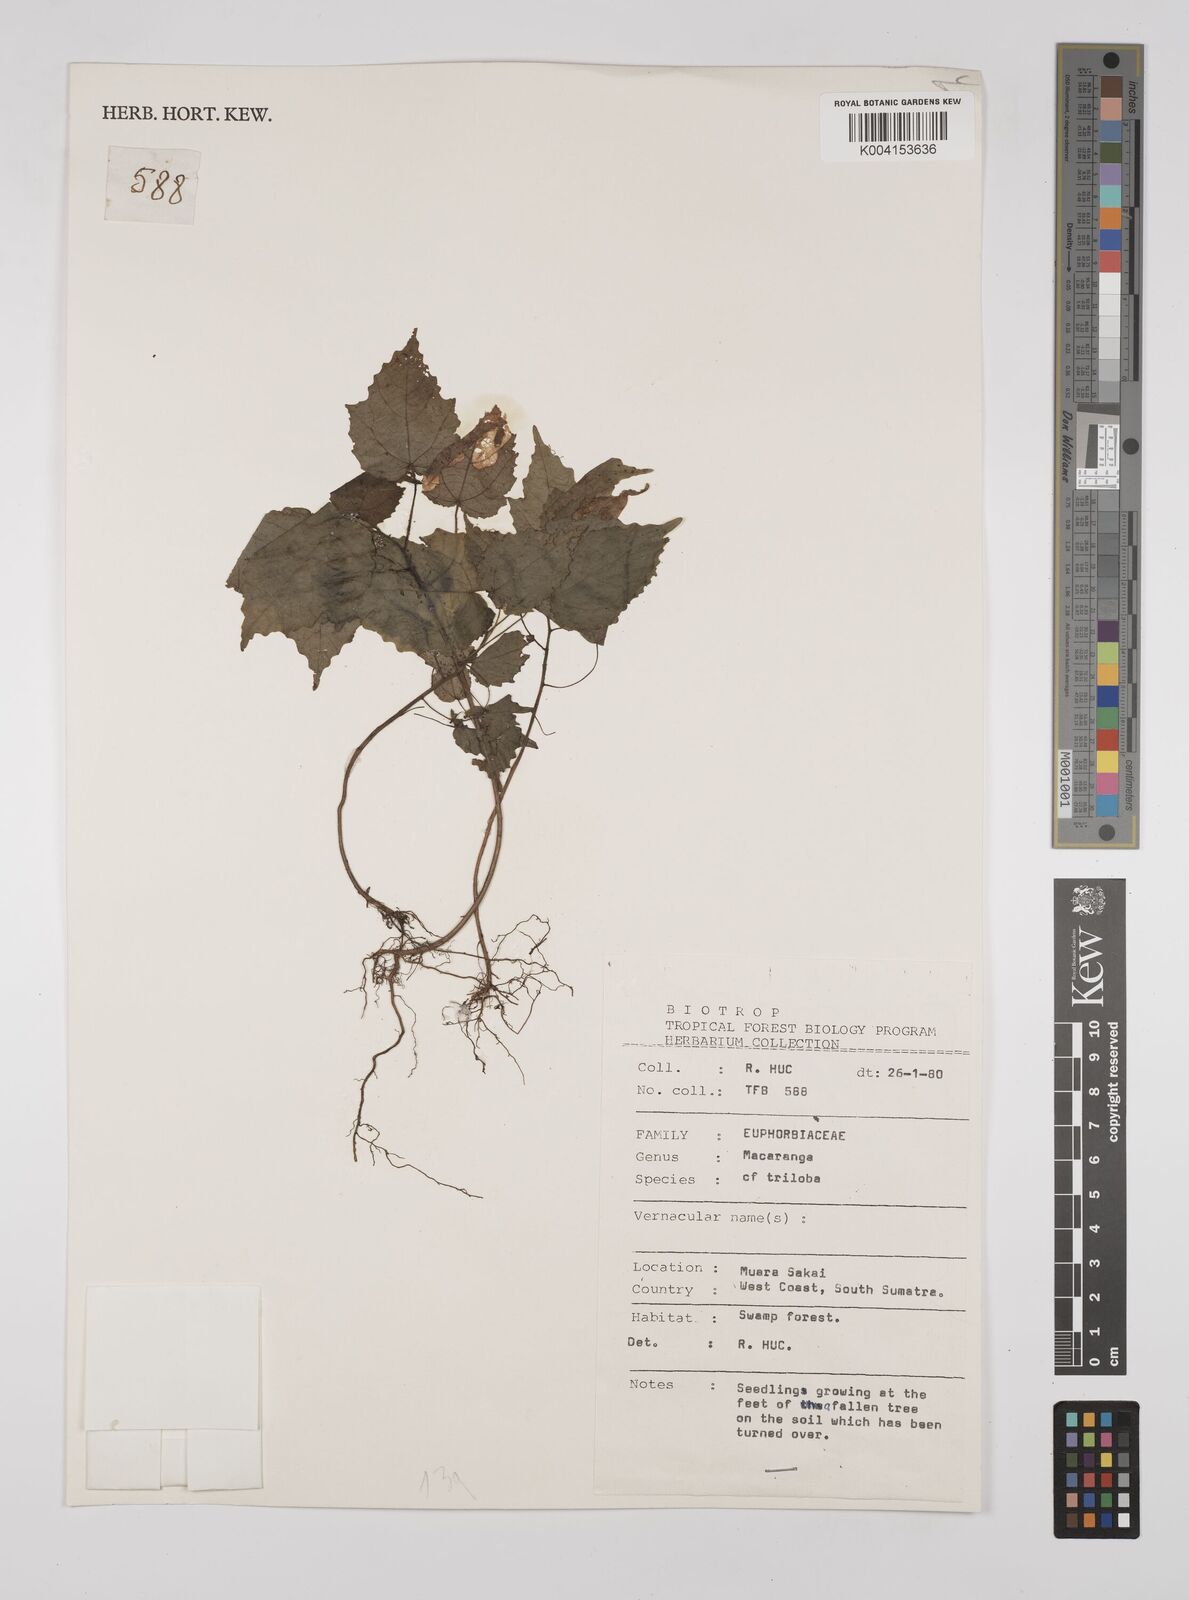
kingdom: Plantae
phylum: Tracheophyta
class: Magnoliopsida
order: Malpighiales
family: Euphorbiaceae
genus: Macaranga
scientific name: Macaranga triloba
